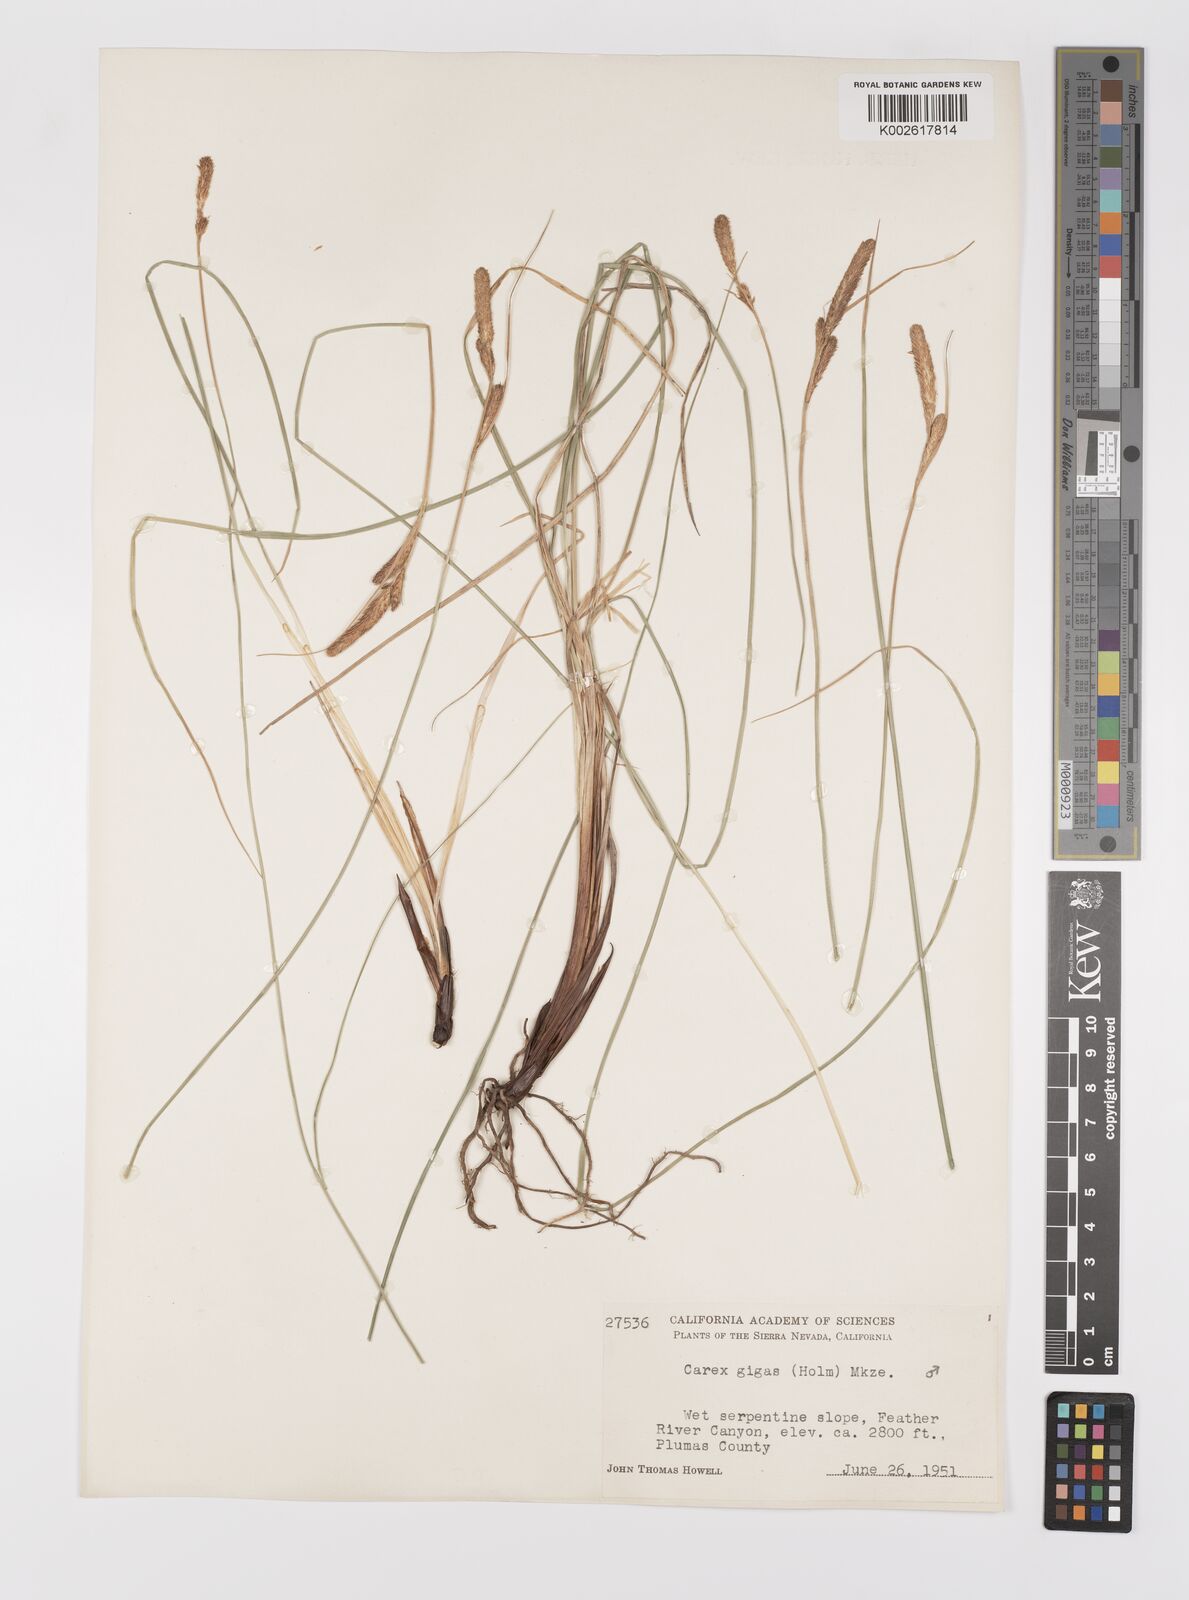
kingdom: Plantae
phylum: Tracheophyta
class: Liliopsida
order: Poales
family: Cyperaceae
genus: Carex
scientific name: Carex scabriuscula
